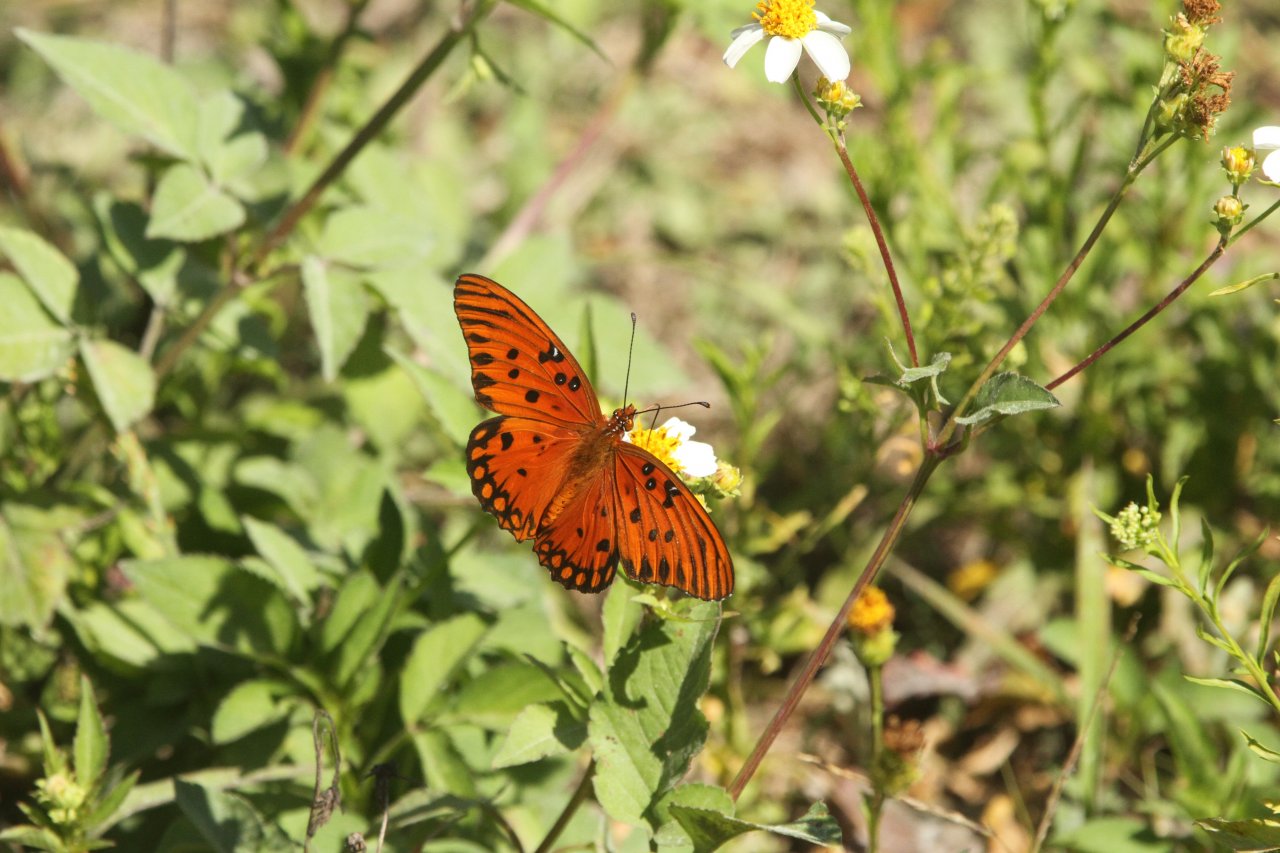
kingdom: Animalia
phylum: Arthropoda
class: Insecta
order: Lepidoptera
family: Nymphalidae
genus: Dione
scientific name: Dione vanillae
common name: Gulf Fritillary
